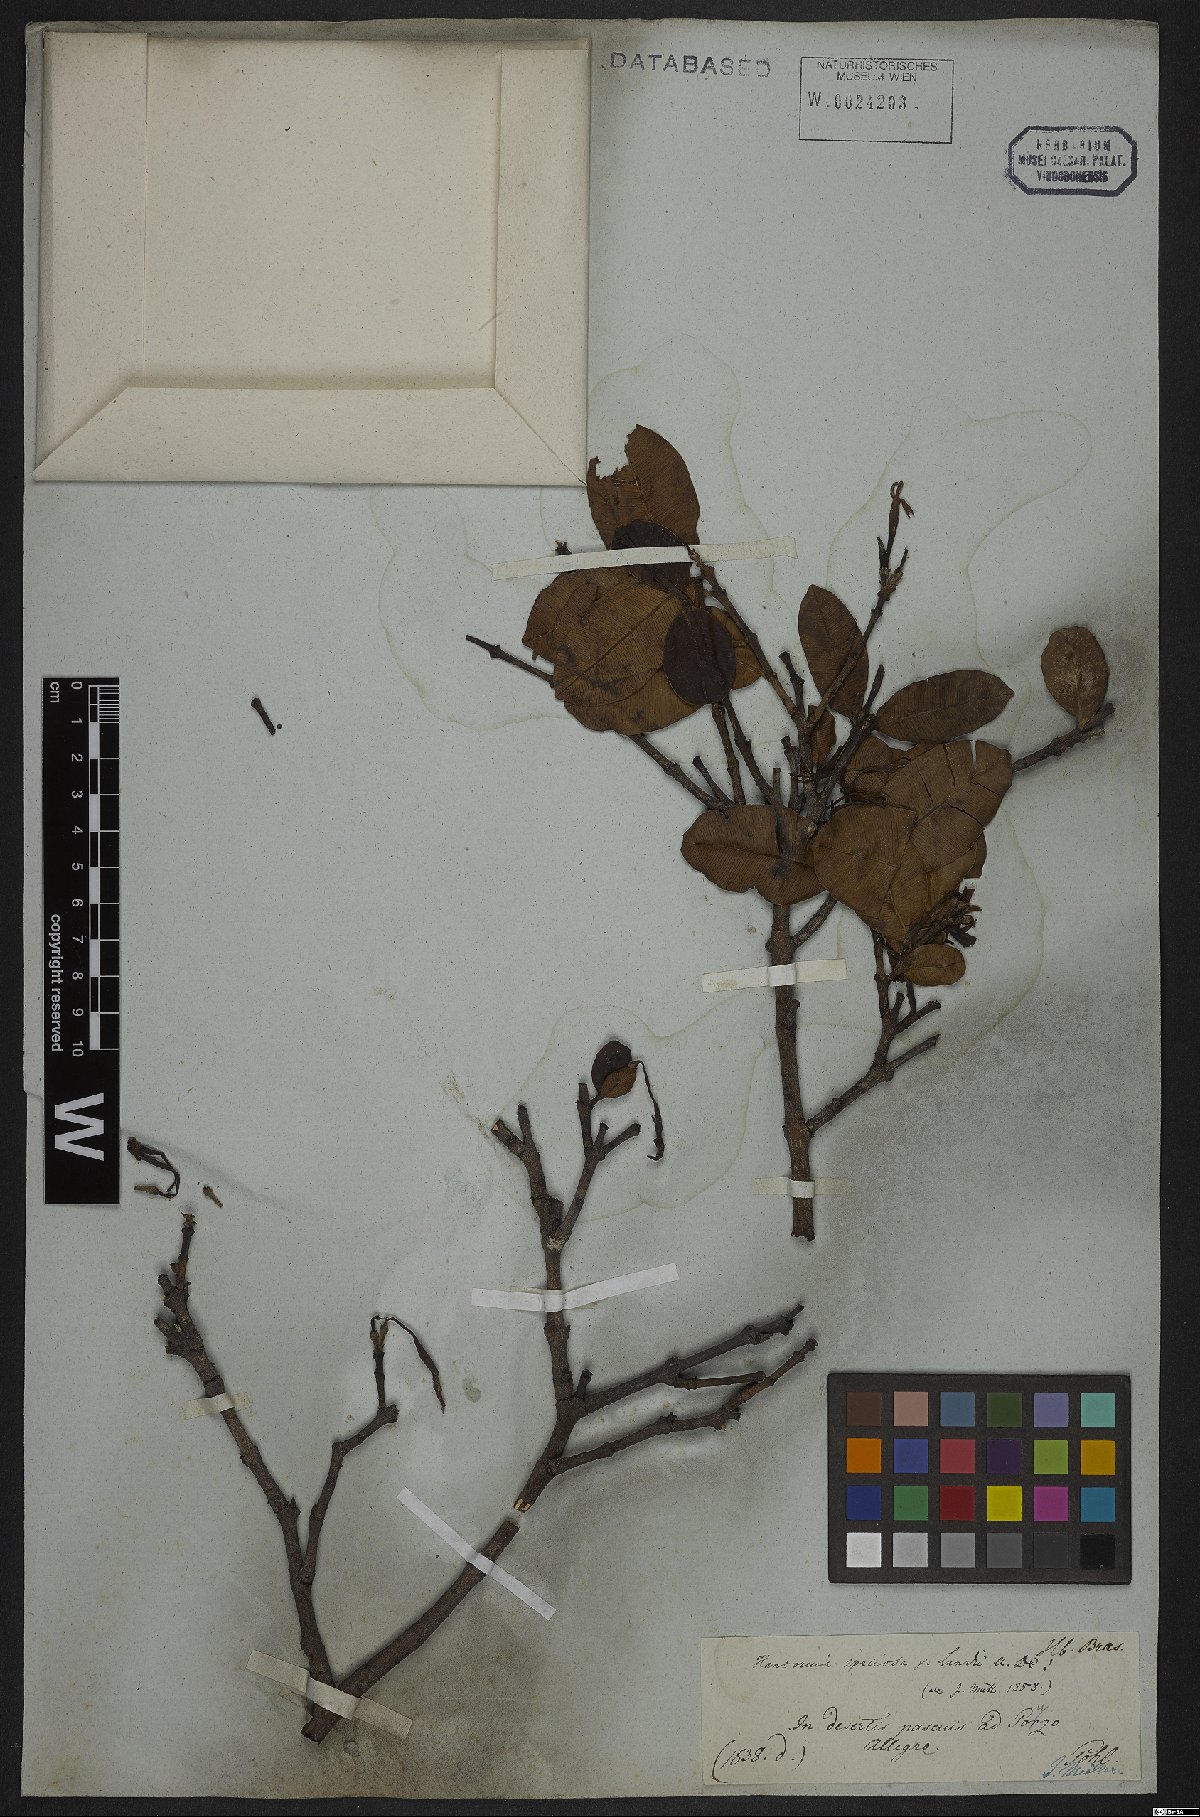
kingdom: Plantae
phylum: Tracheophyta
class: Magnoliopsida
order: Gentianales
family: Apocynaceae
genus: Hancornia
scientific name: Hancornia speciosa
